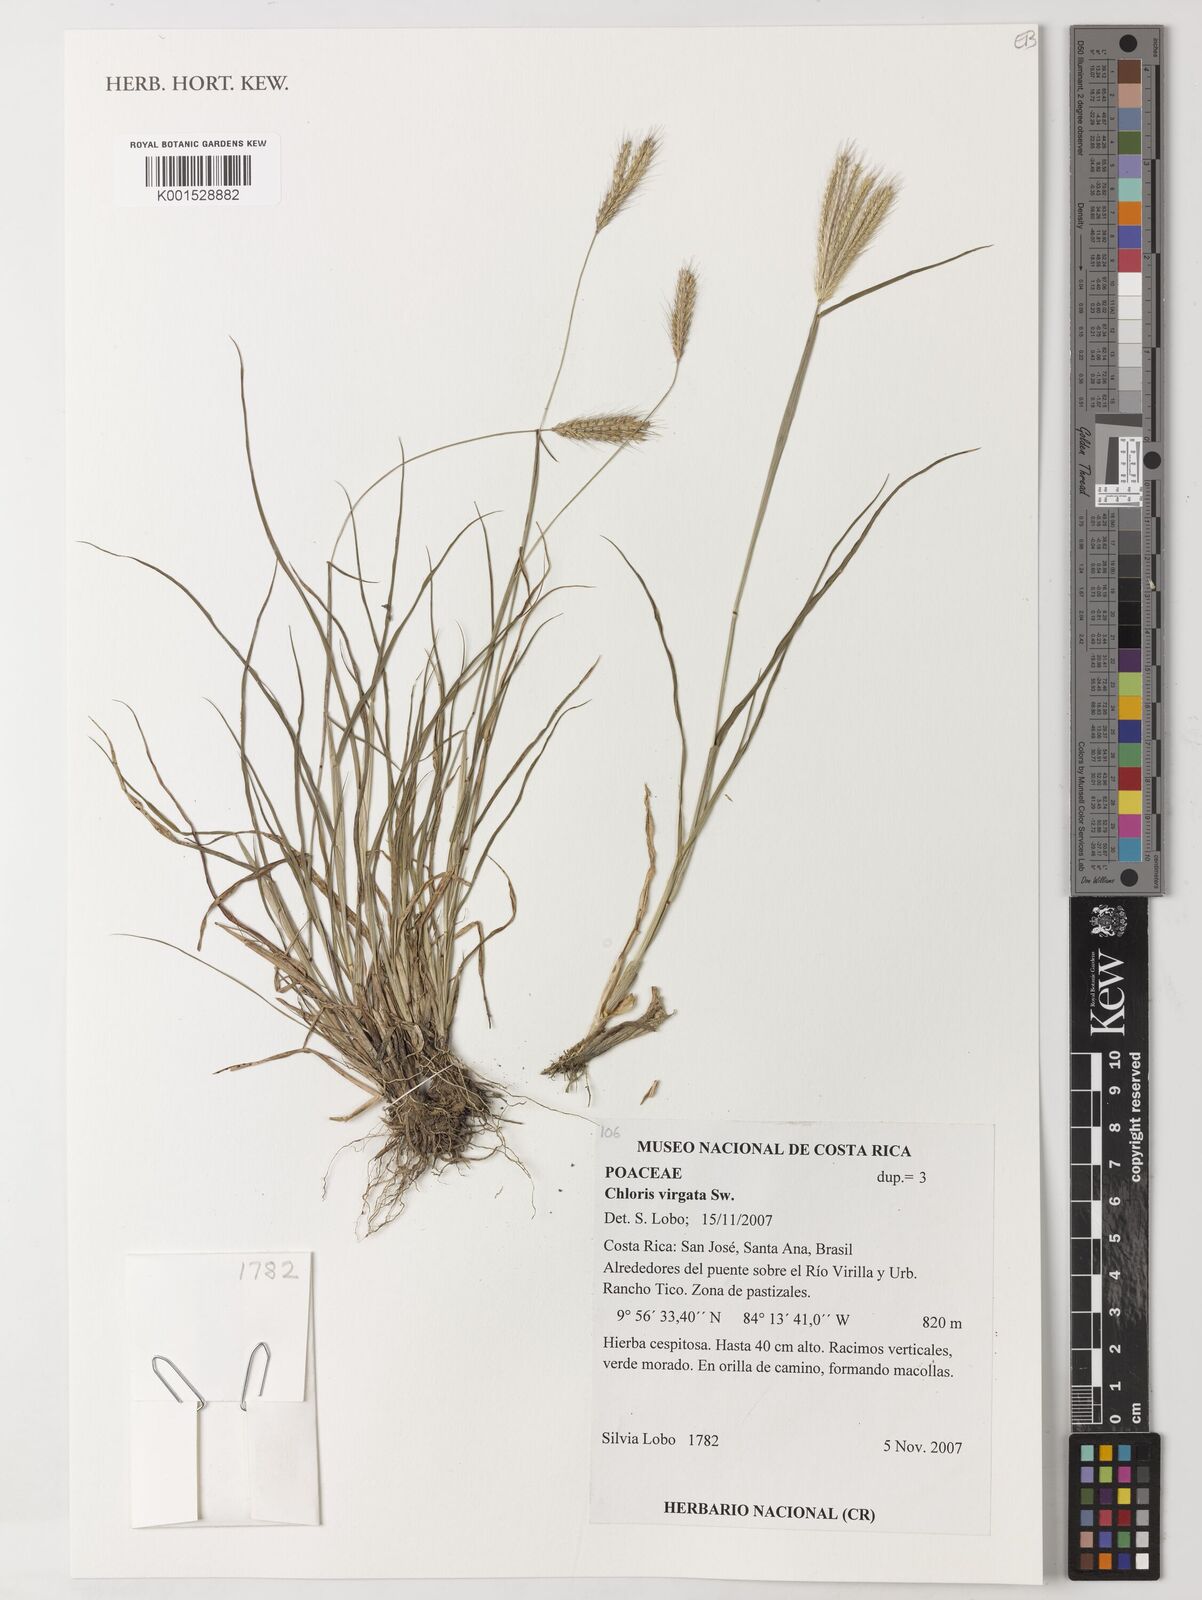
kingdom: Plantae
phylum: Tracheophyta
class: Liliopsida
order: Poales
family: Poaceae
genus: Chloris
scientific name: Chloris virgata
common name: Feathery rhodes-grass
